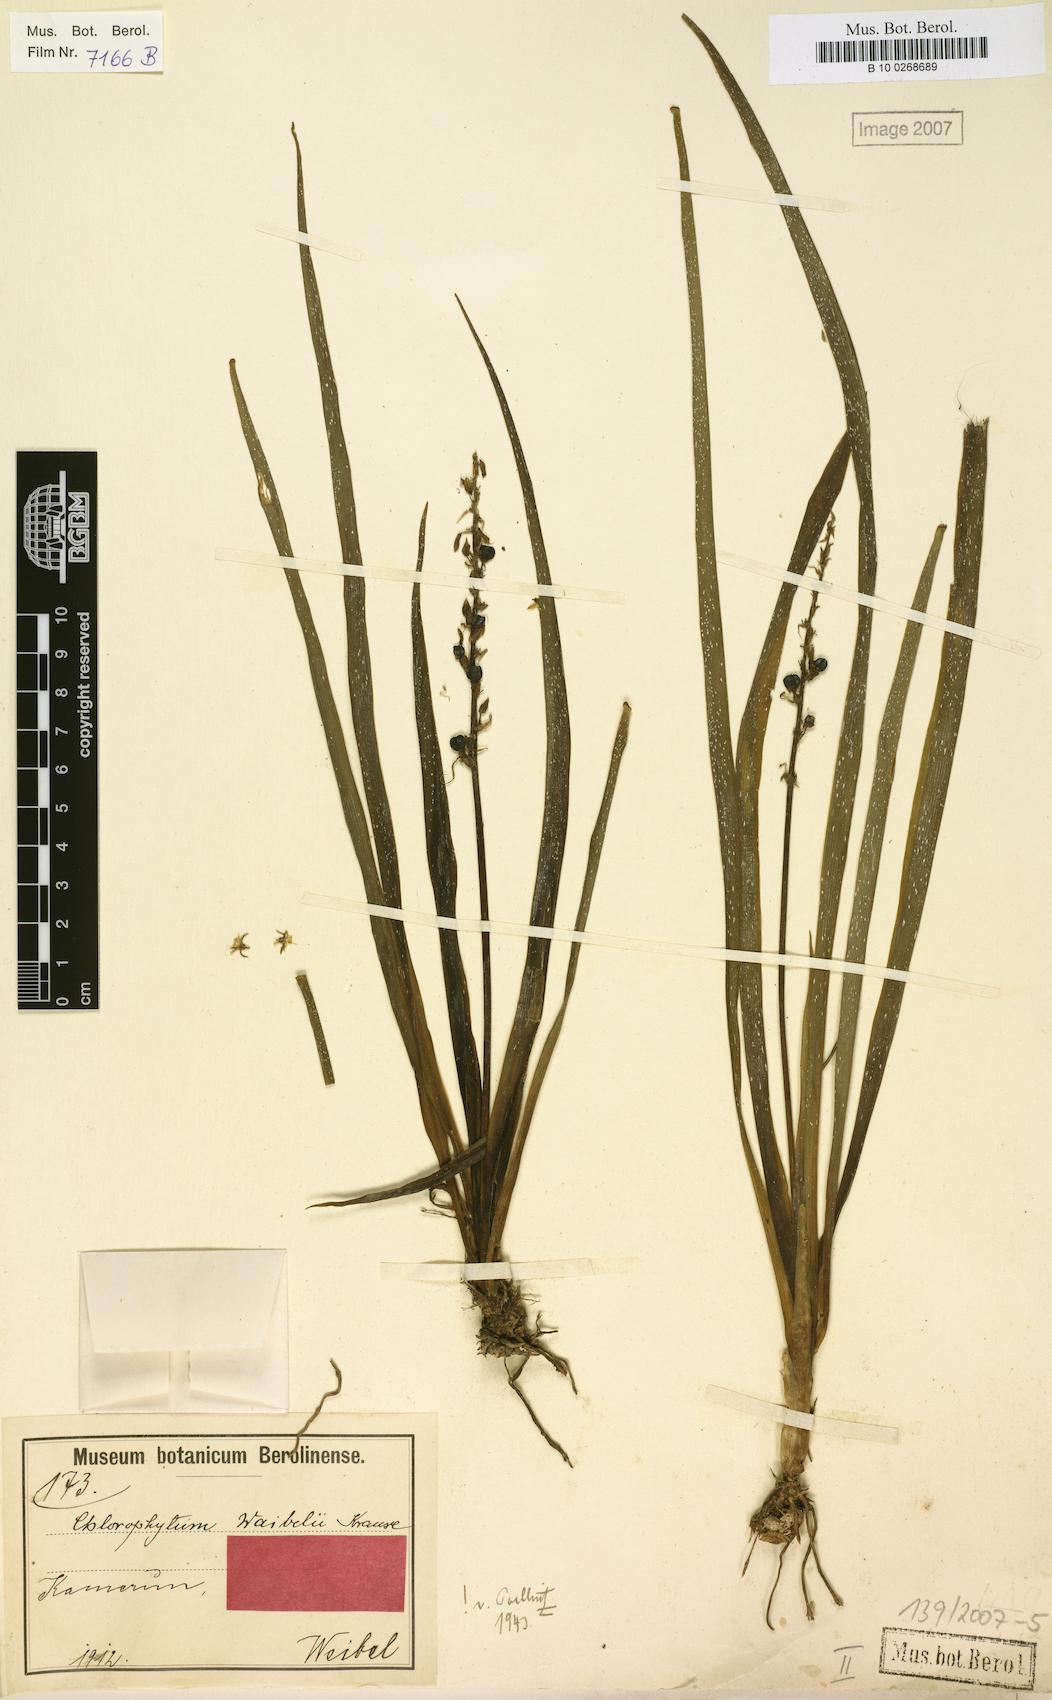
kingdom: Plantae
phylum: Tracheophyta
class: Liliopsida
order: Asparagales
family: Asparagaceae
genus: Chlorophytum
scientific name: Chlorophytum camporum
